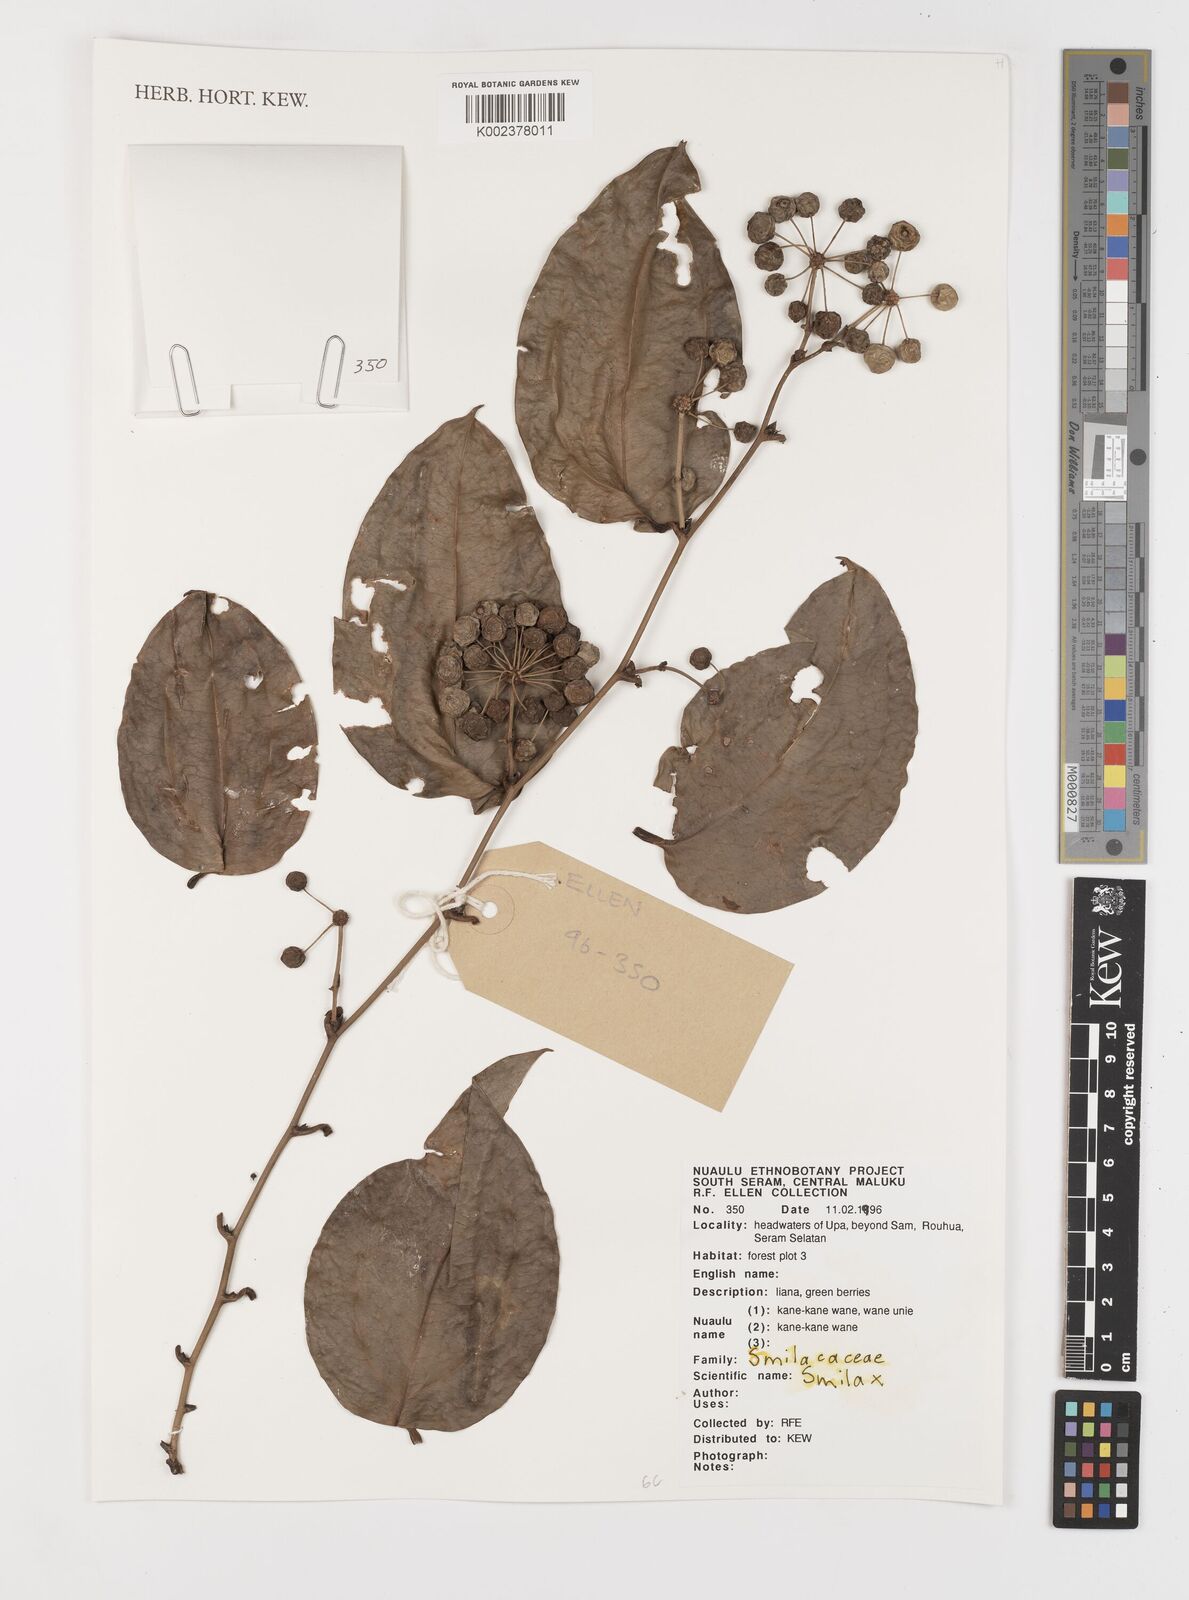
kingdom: Plantae
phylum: Tracheophyta
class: Liliopsida
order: Liliales
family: Smilacaceae
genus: Smilax
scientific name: Smilax
